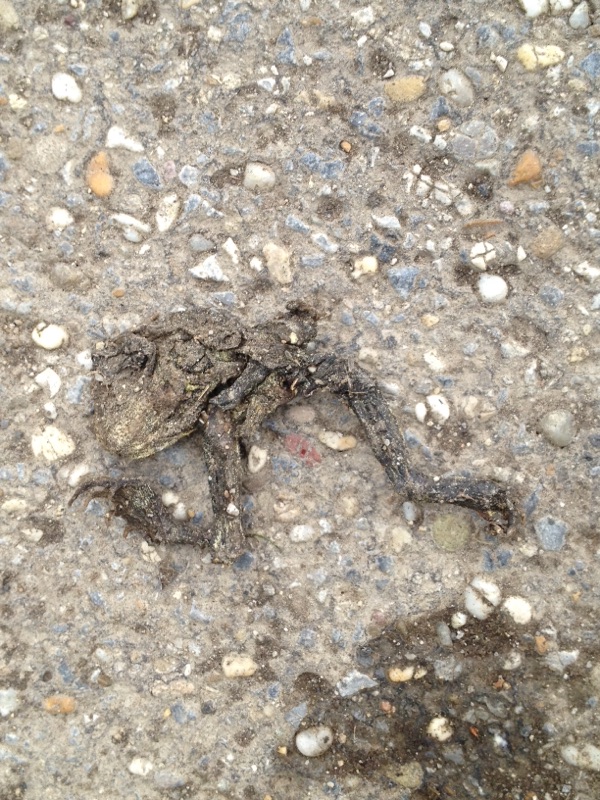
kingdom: Animalia
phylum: Chordata
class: Amphibia
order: Anura
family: Bufonidae
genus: Bufotes
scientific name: Bufotes viridis
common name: European green toad
